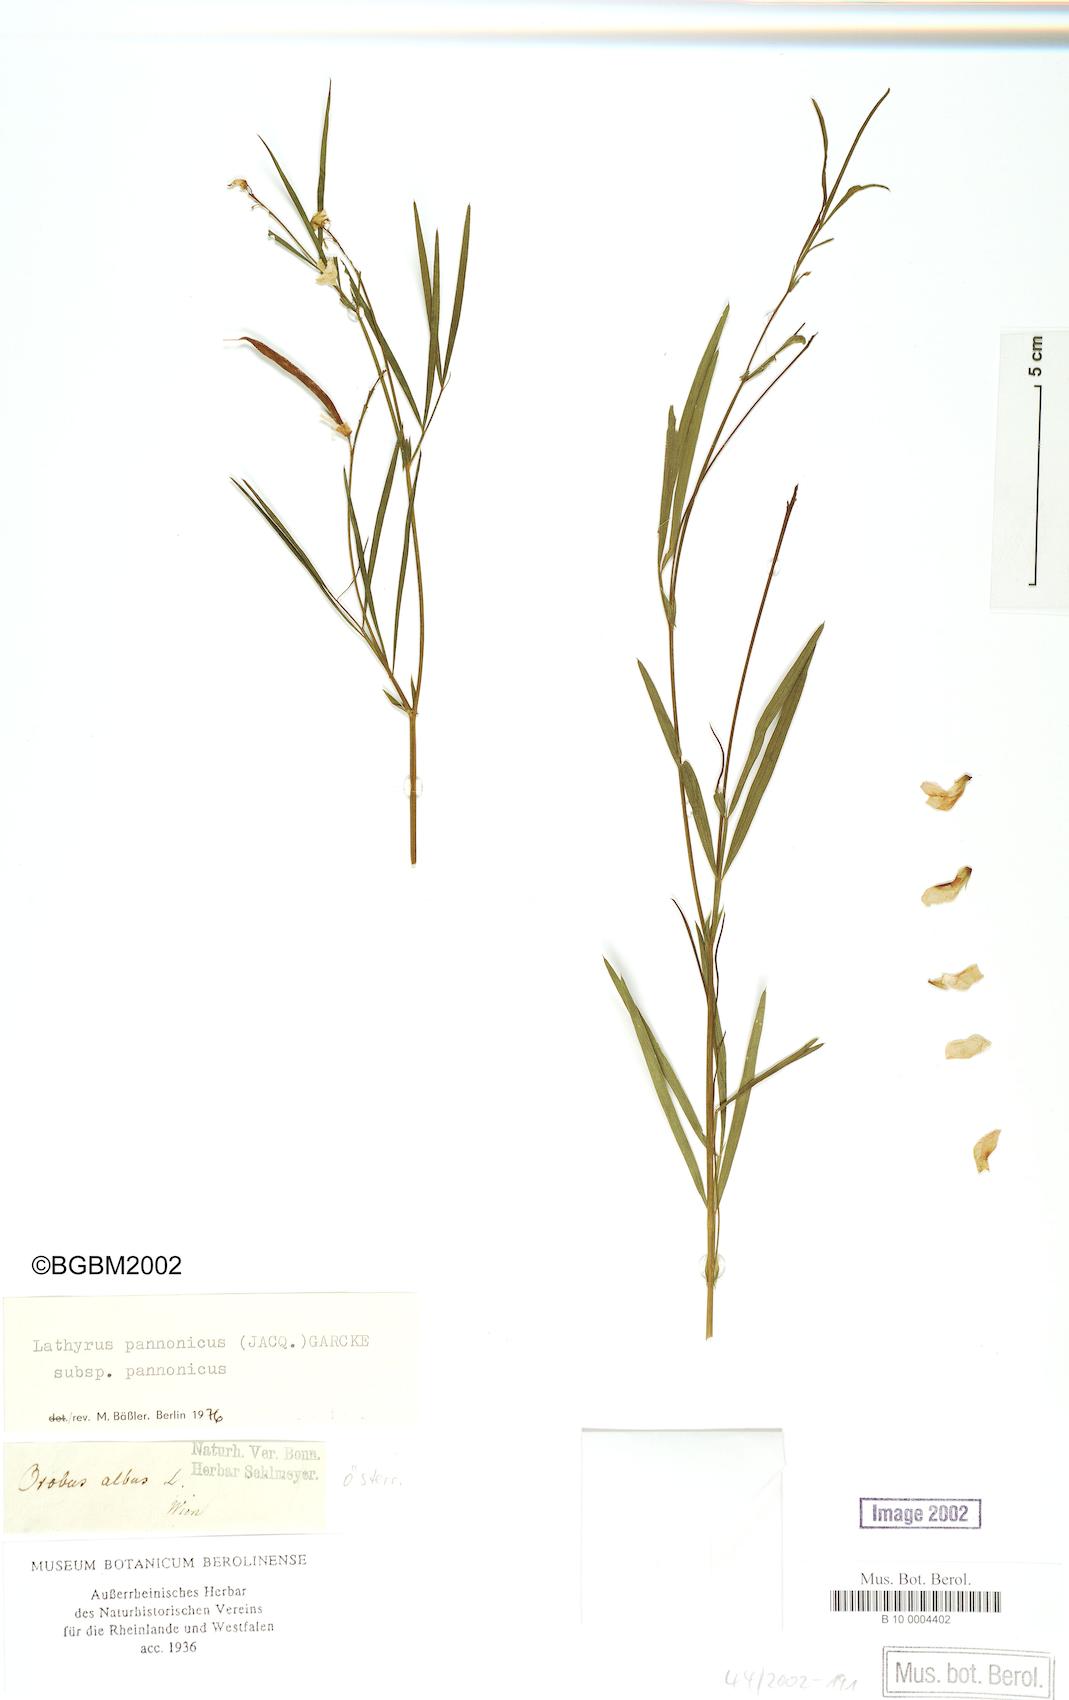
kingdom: Plantae
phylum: Tracheophyta
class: Magnoliopsida
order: Fabales
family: Fabaceae
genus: Lathyrus
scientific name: Lathyrus pannonicus
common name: Pea
